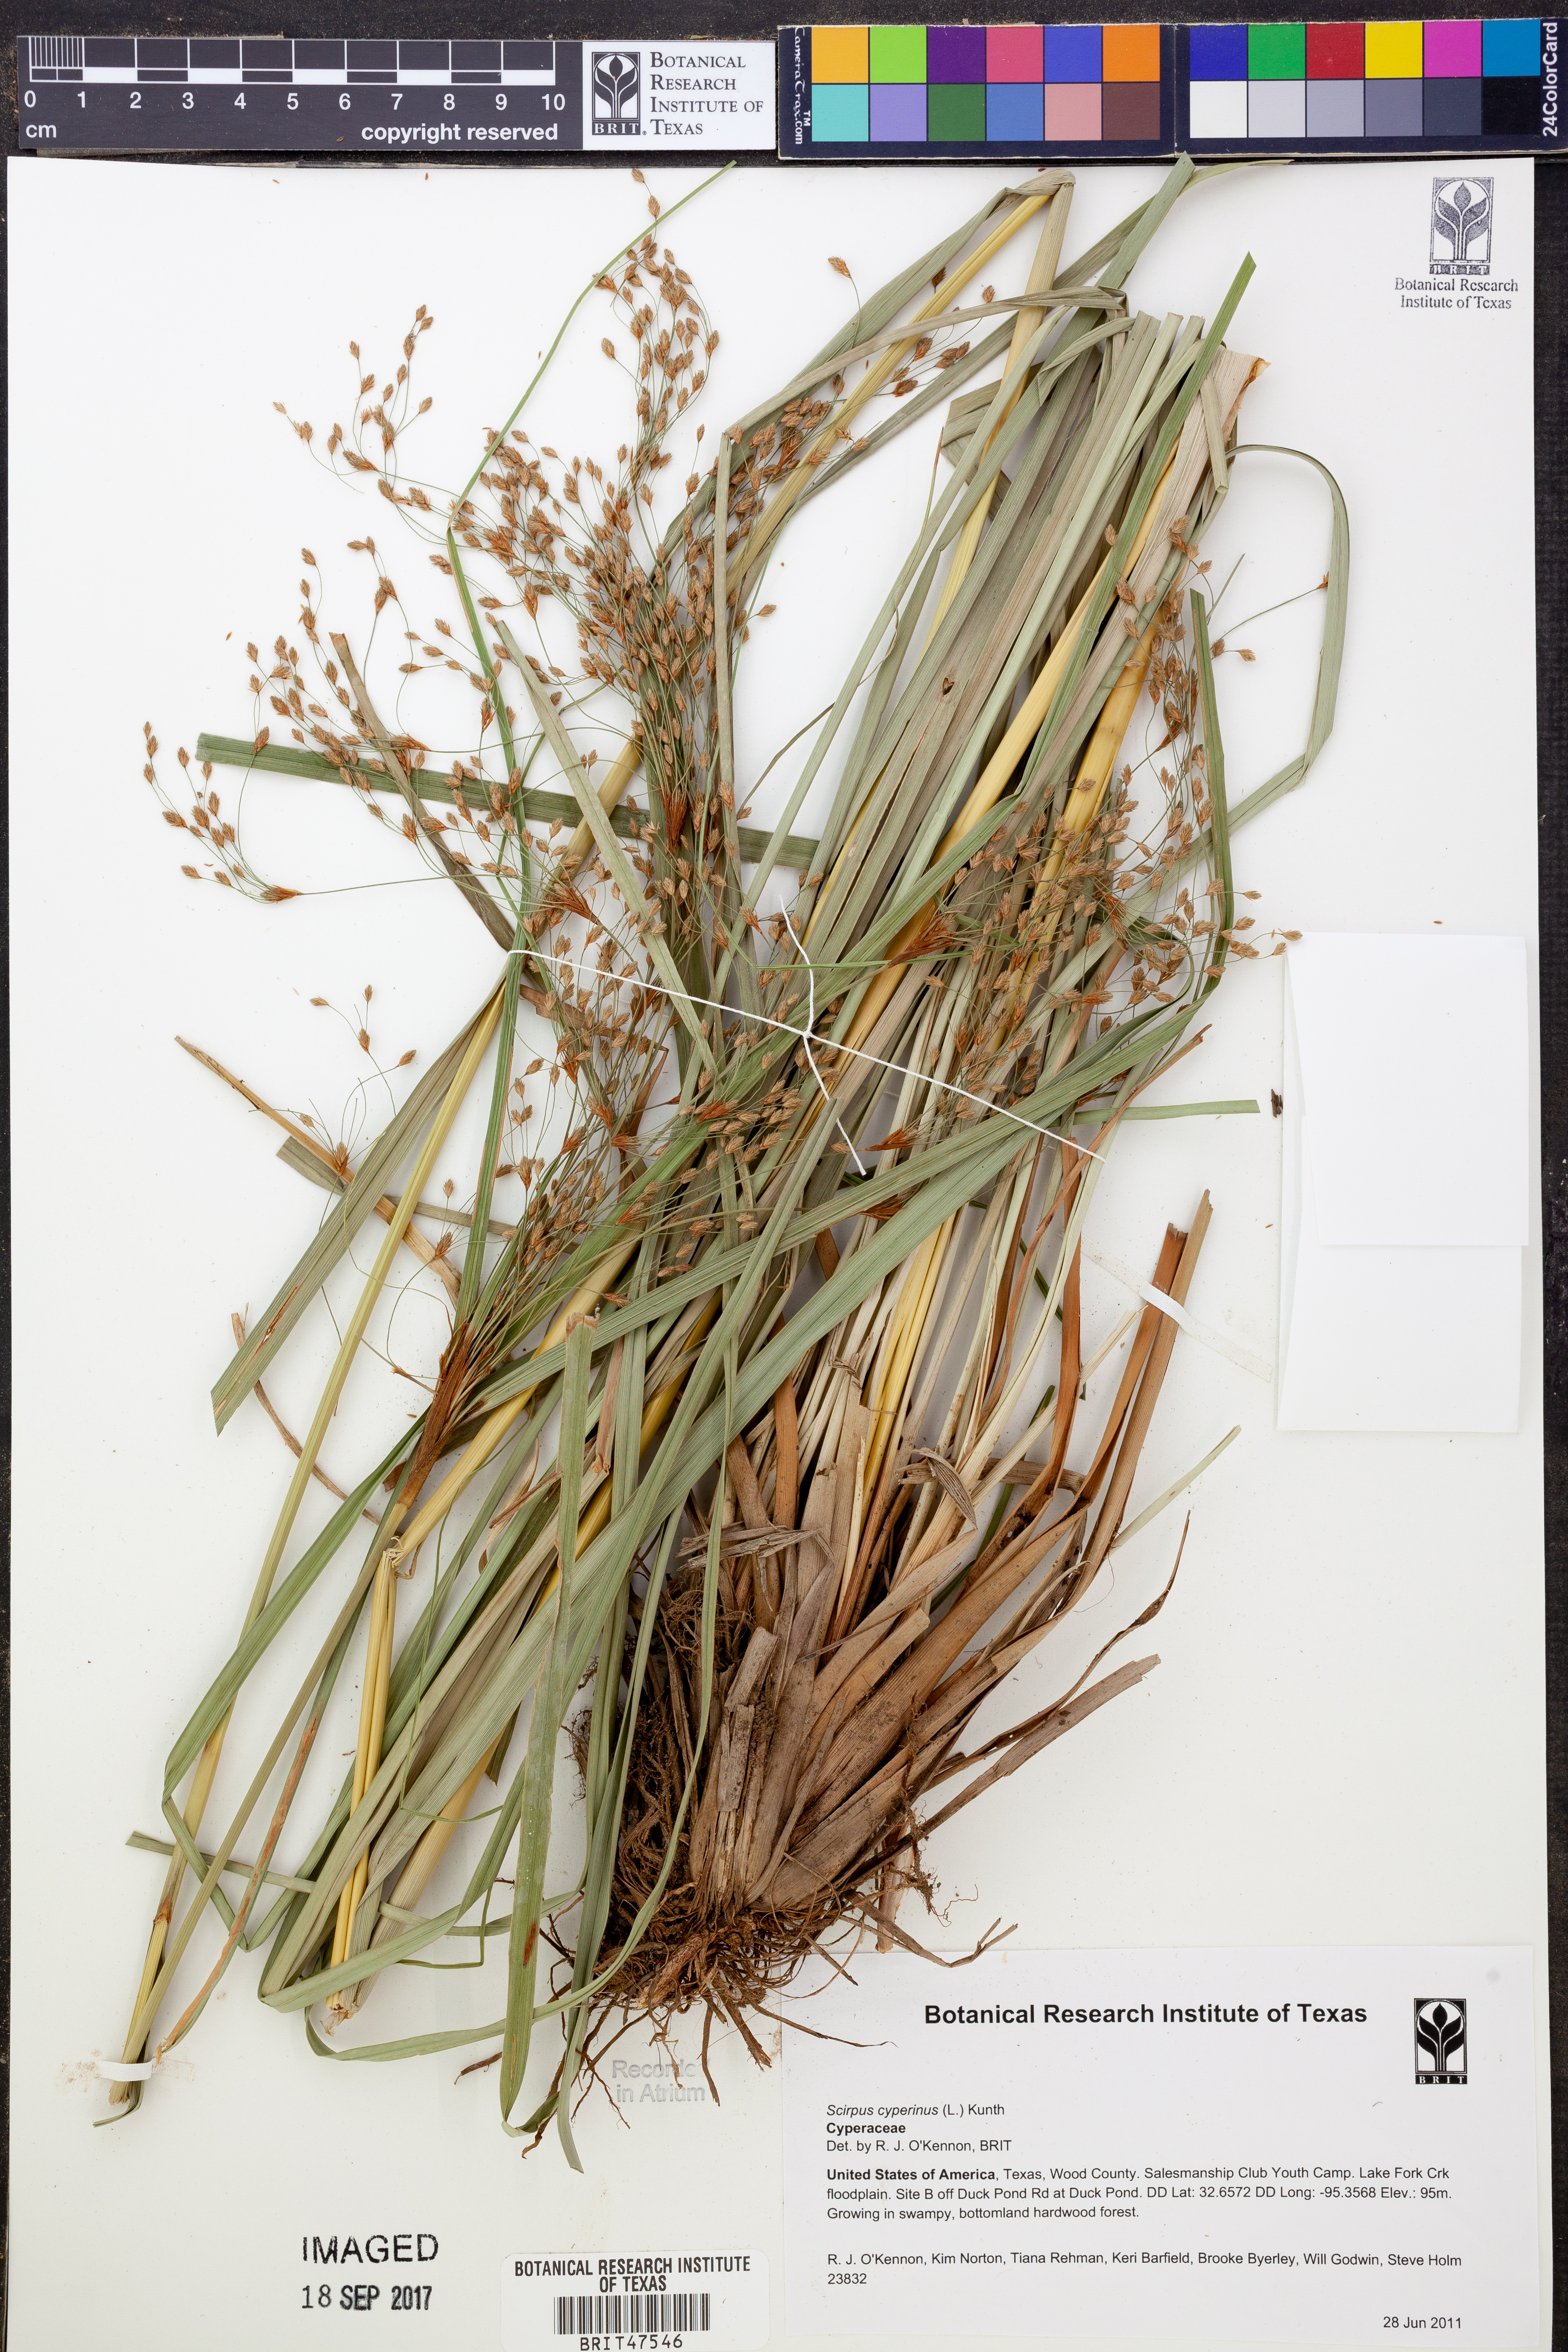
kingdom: Plantae
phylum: Tracheophyta
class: Liliopsida
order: Poales
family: Cyperaceae
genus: Scirpus
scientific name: Scirpus cyperinus
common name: Black-sheathed bulrush
